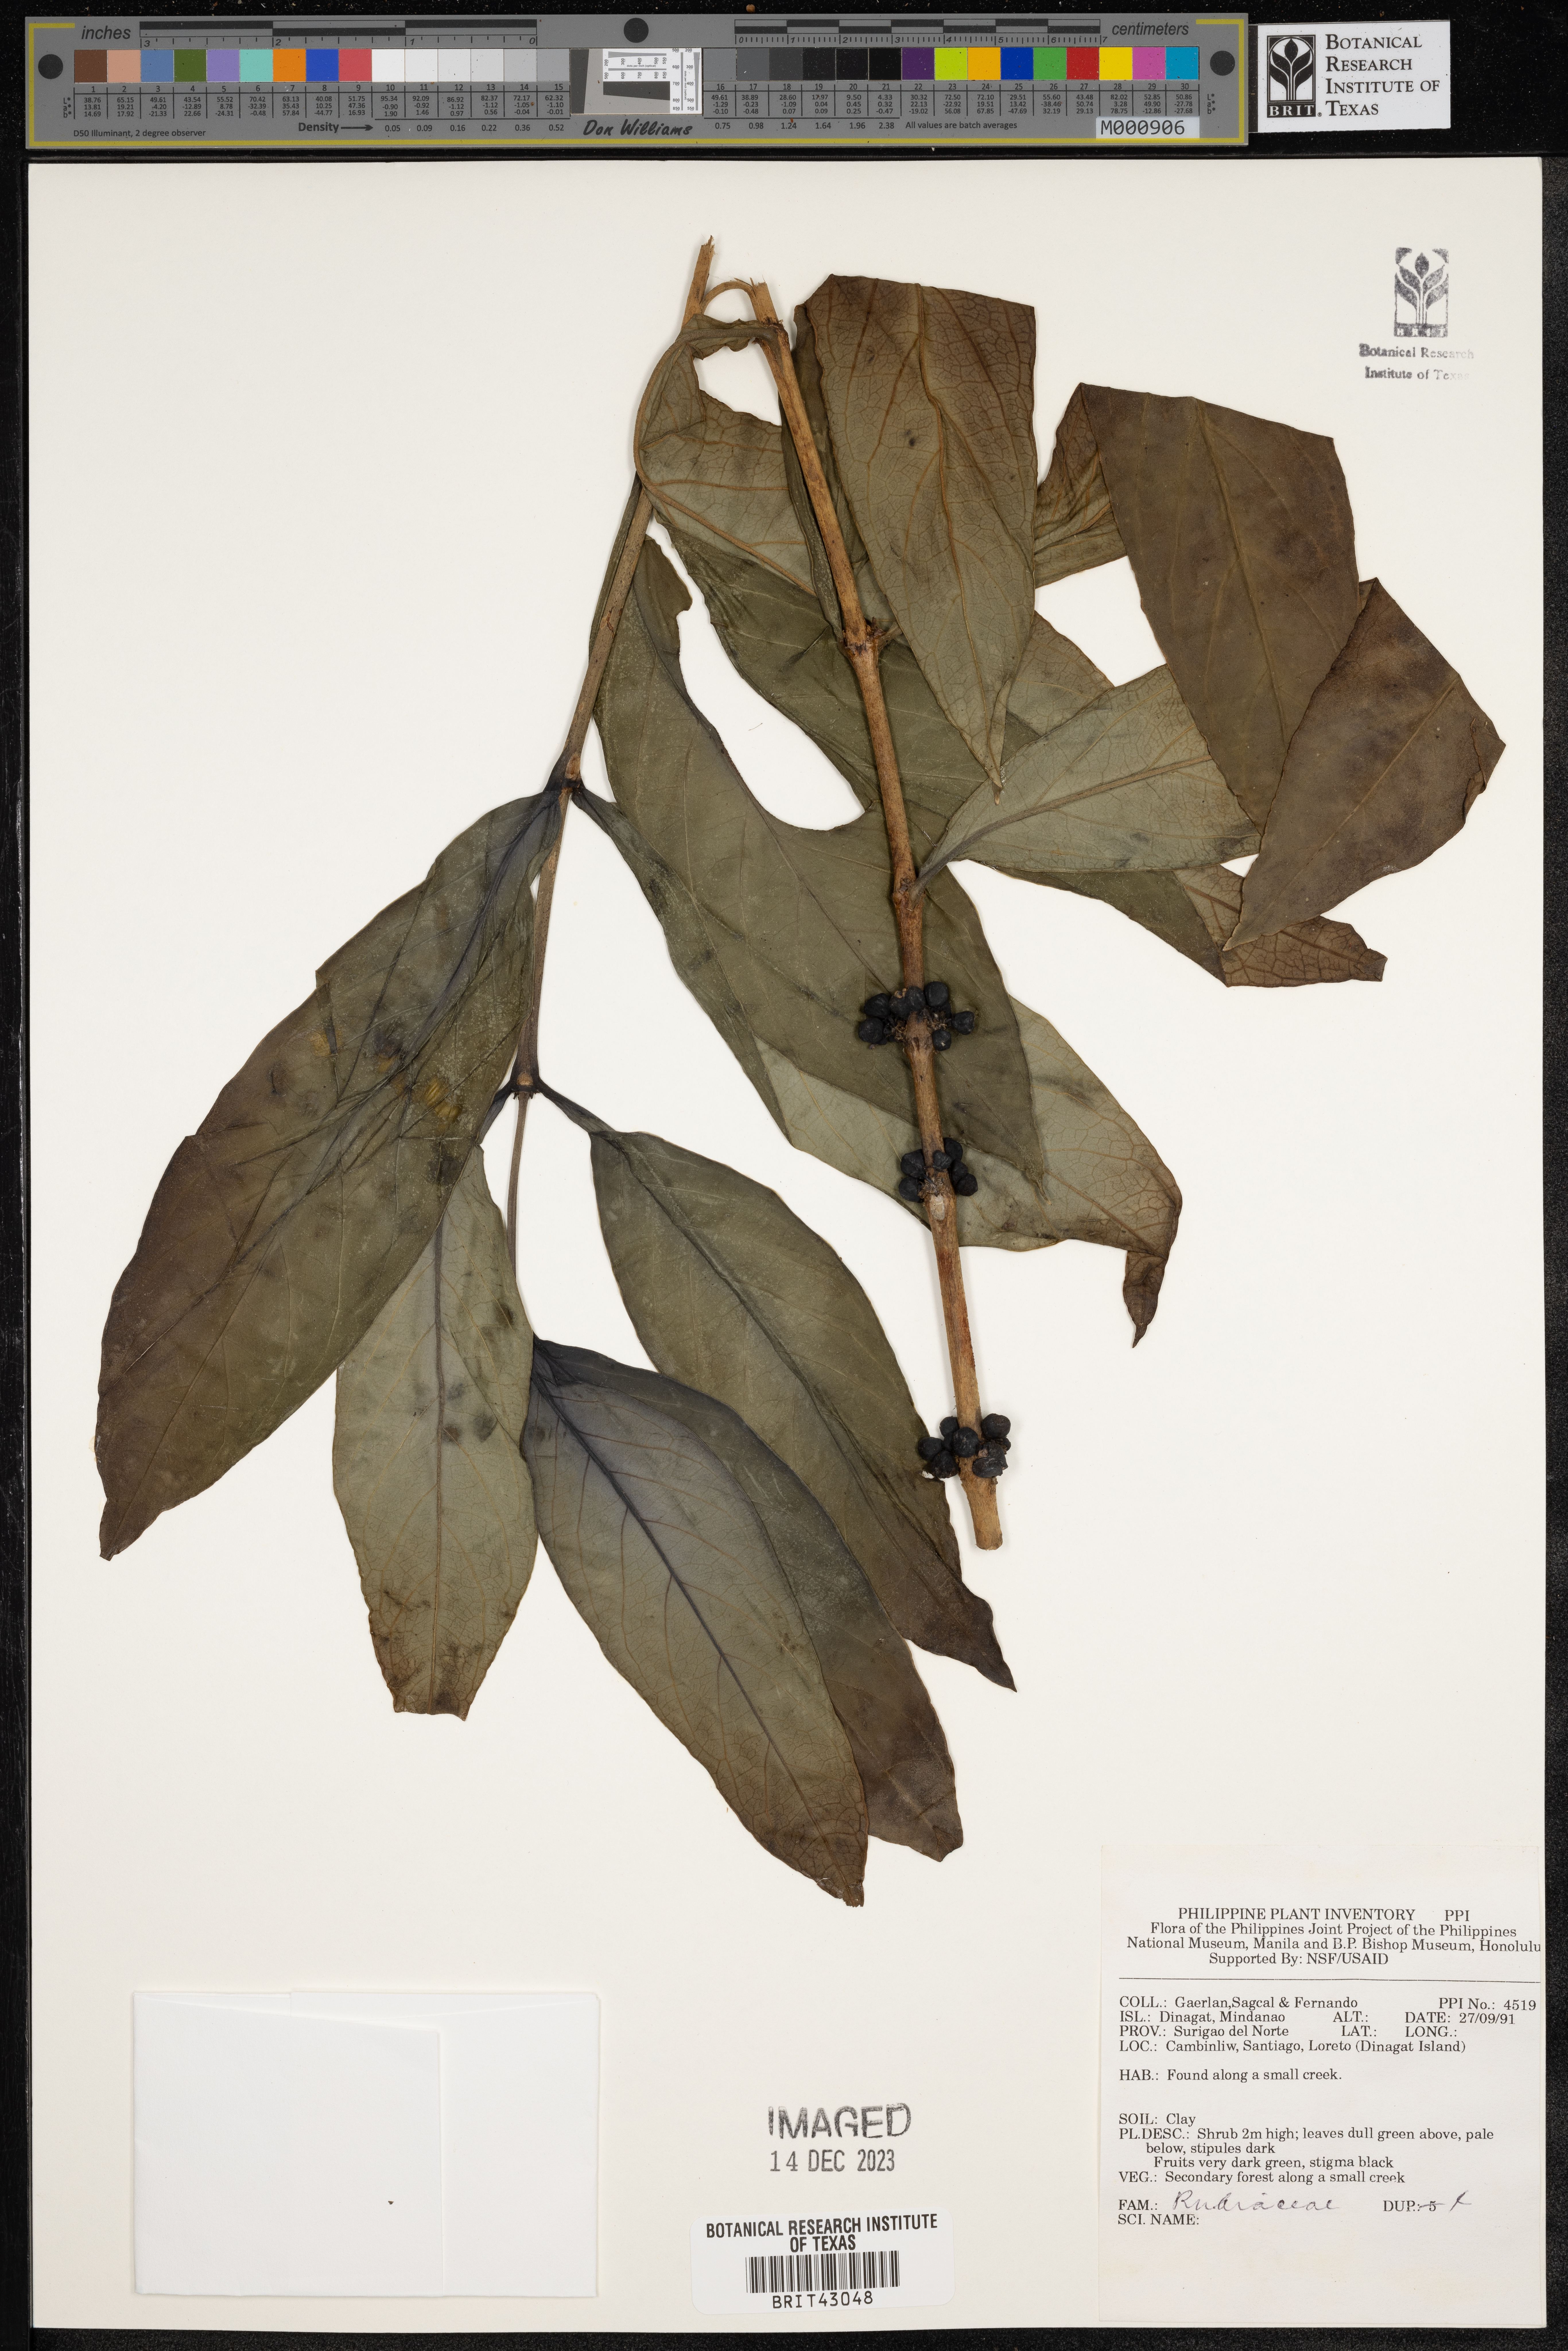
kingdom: Plantae
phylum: Tracheophyta
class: Magnoliopsida
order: Gentianales
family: Rubiaceae
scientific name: Rubiaceae
